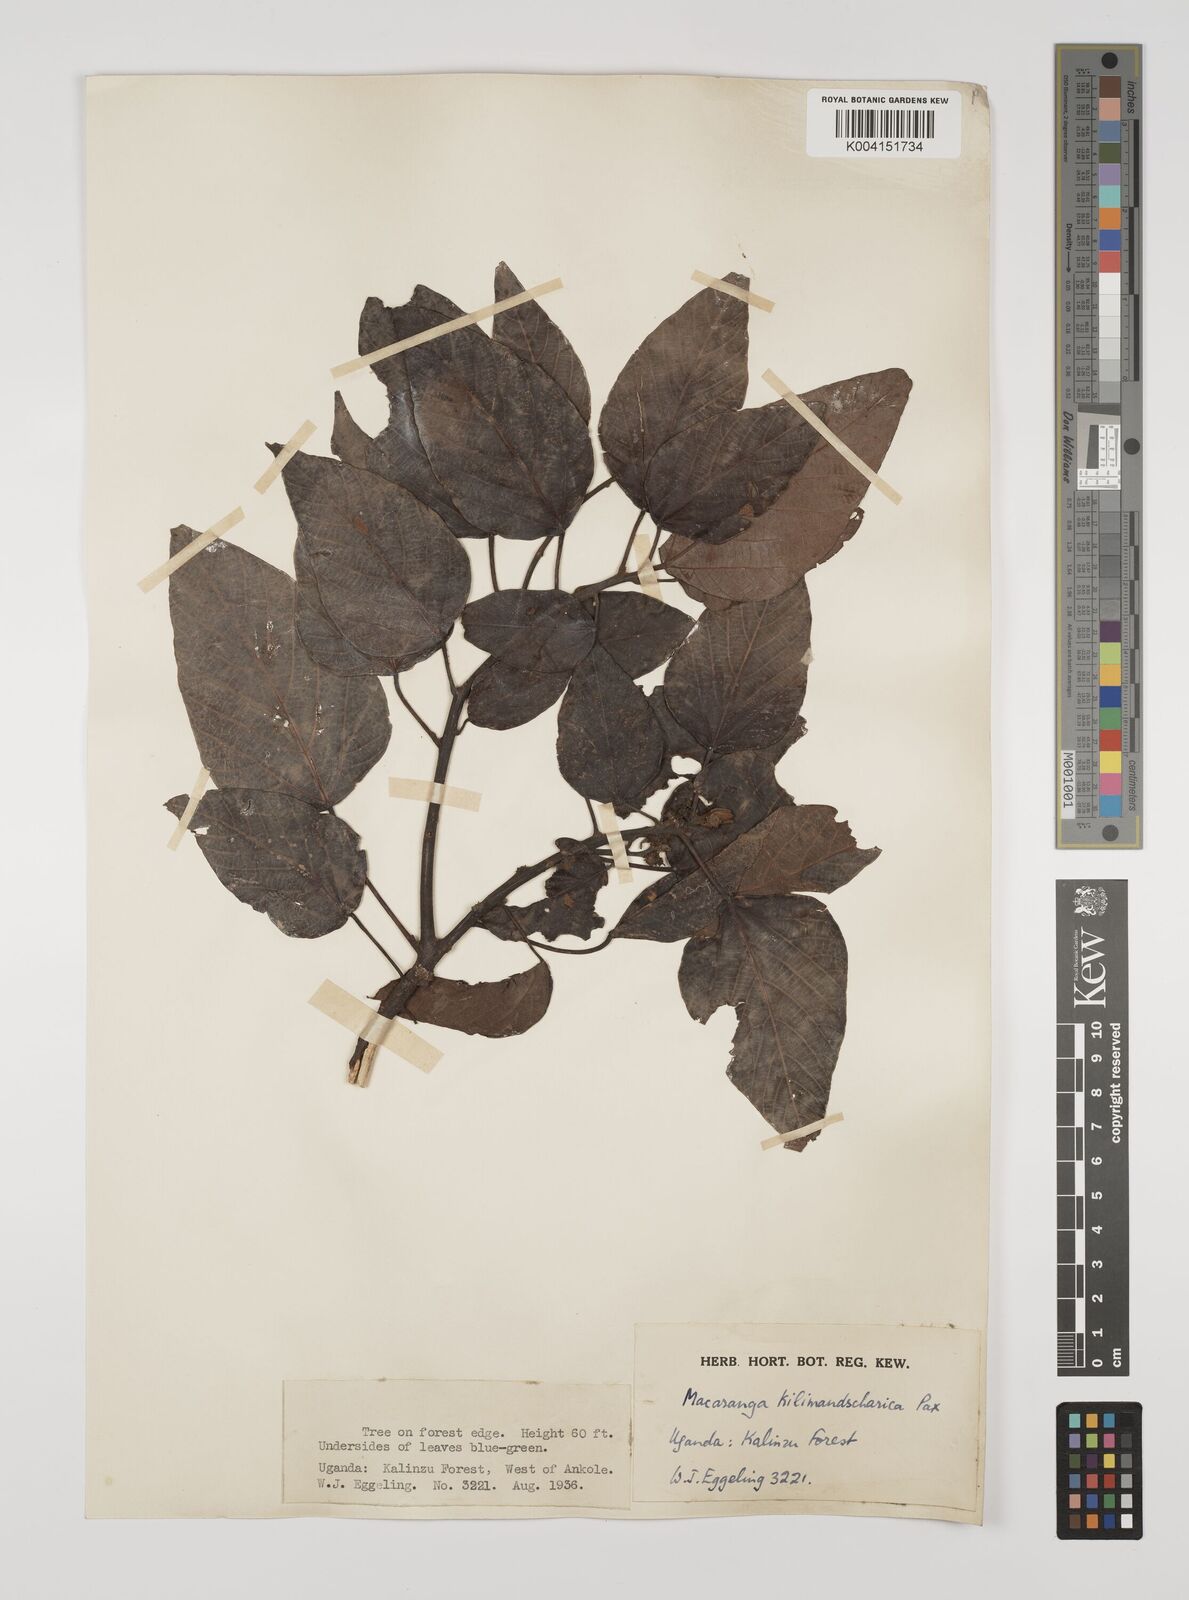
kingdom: Plantae
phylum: Tracheophyta
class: Magnoliopsida
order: Malpighiales
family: Euphorbiaceae
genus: Macaranga
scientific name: Macaranga
